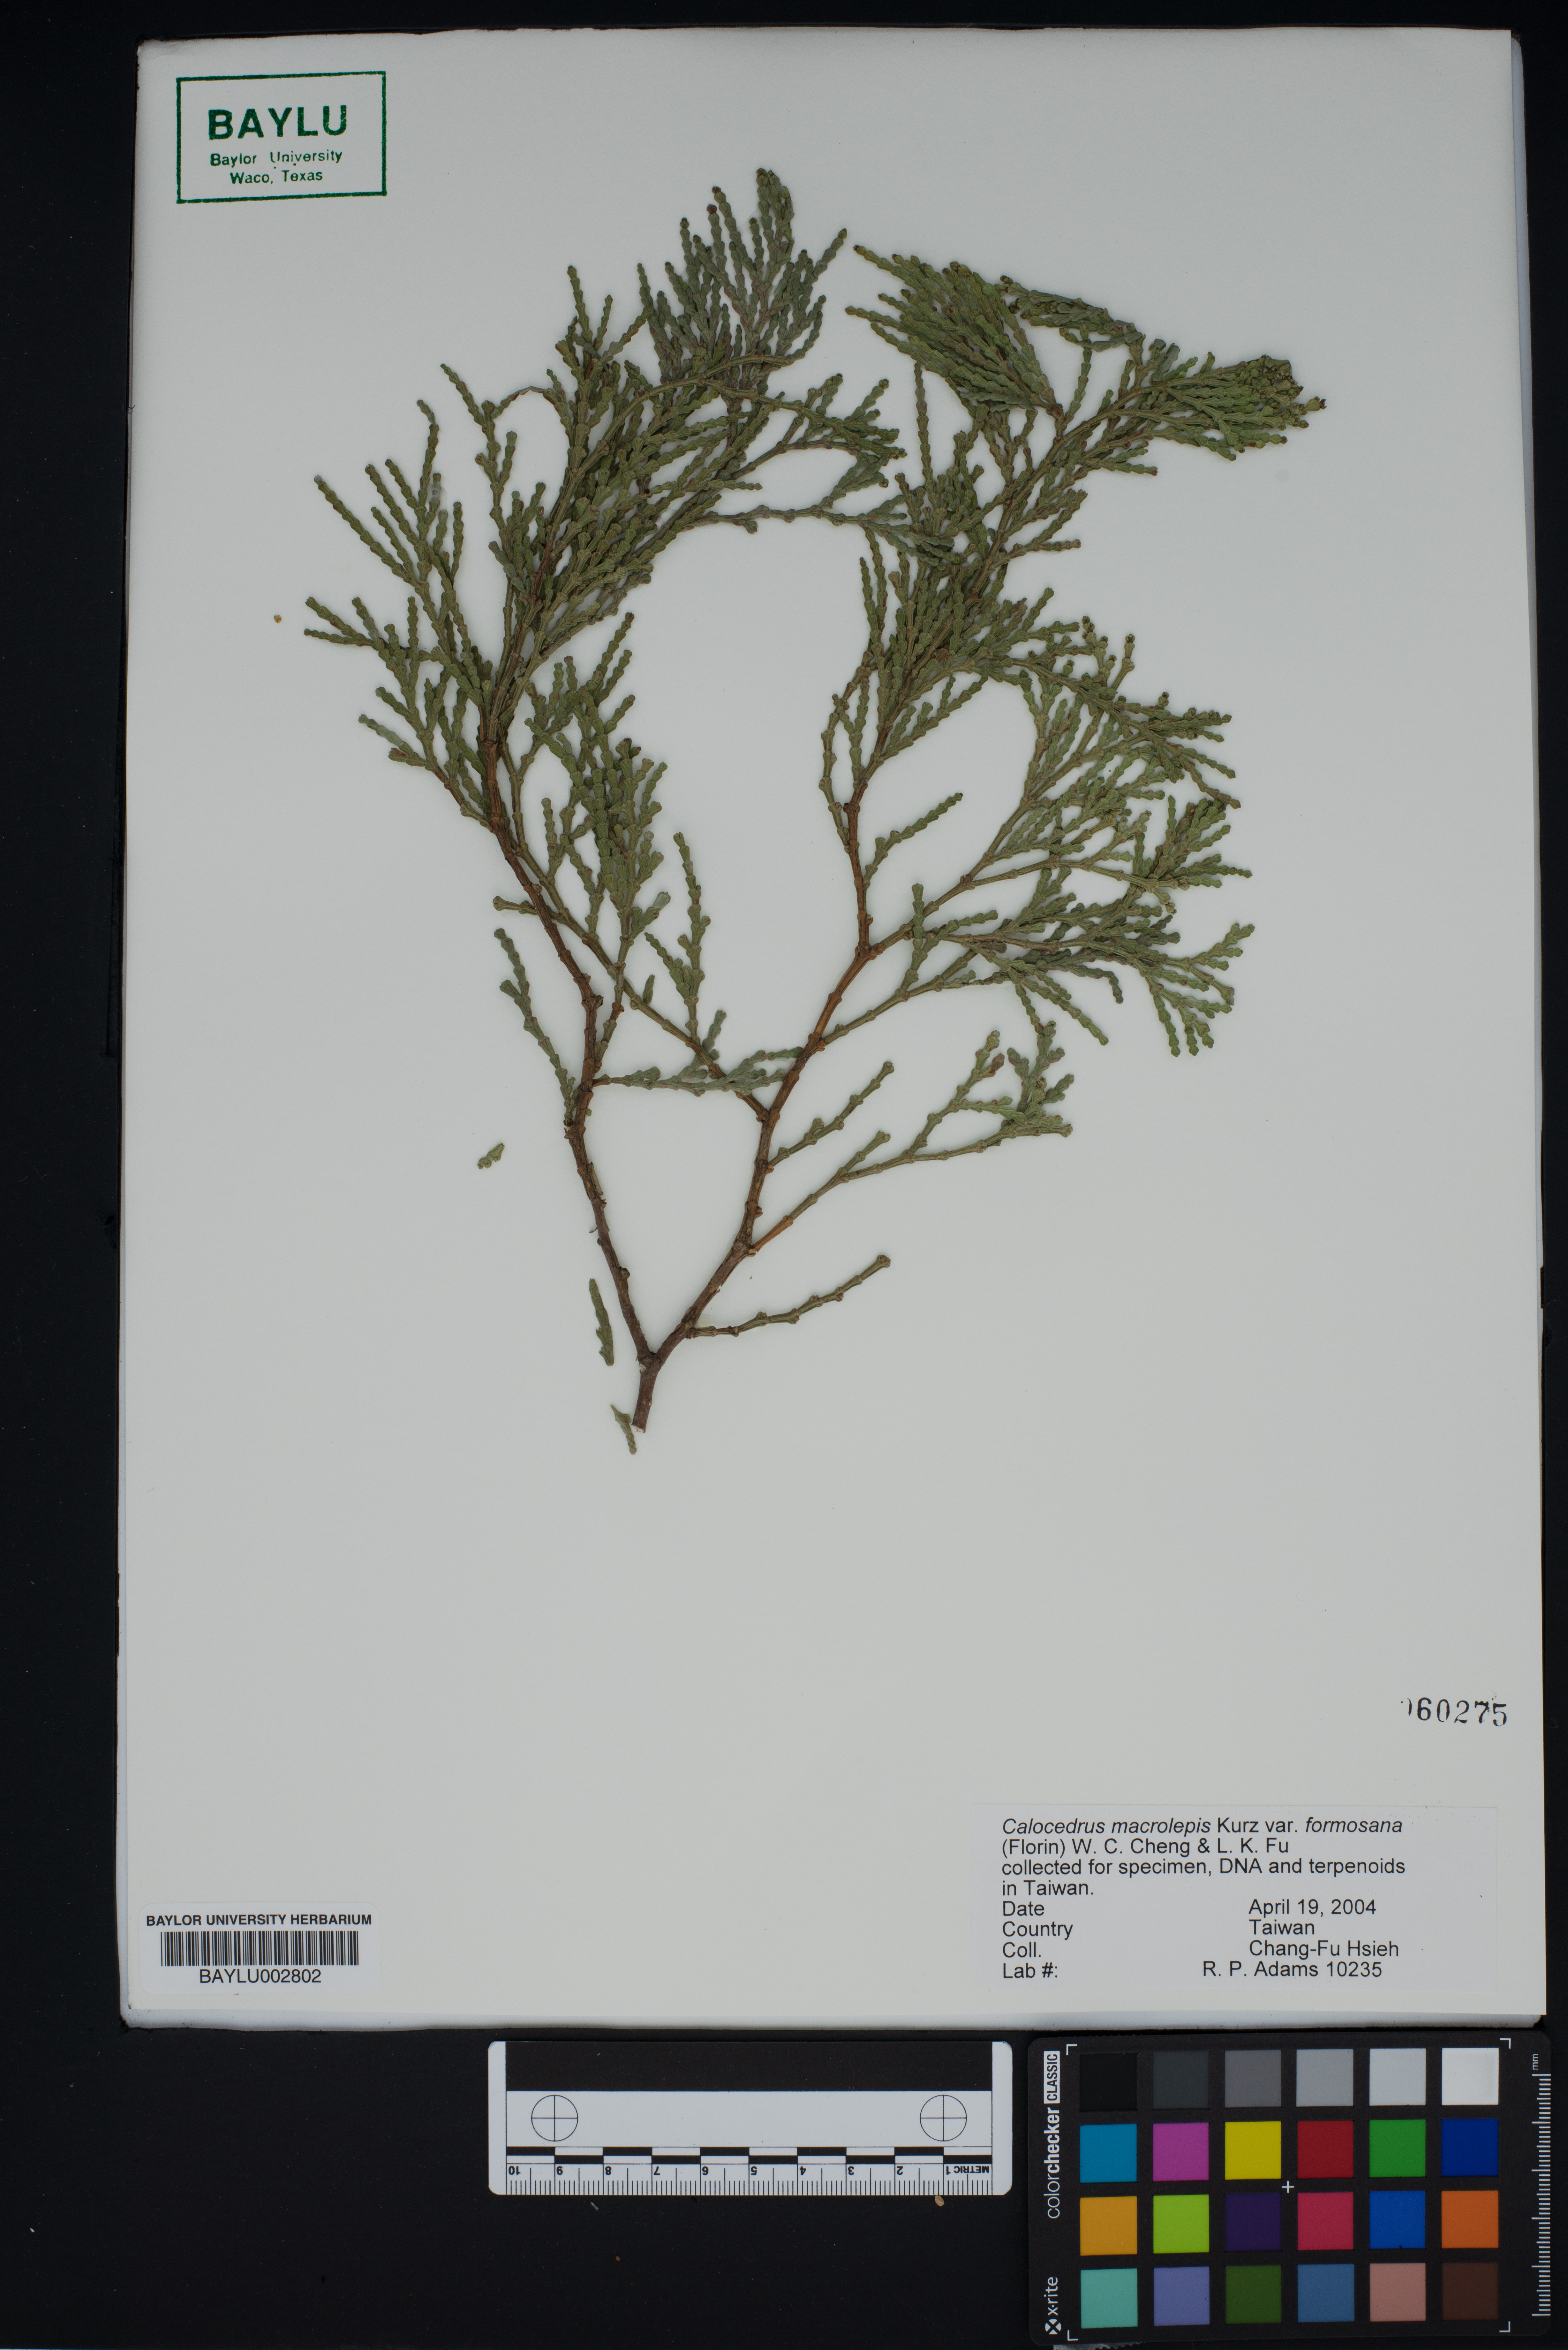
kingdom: Plantae
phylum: Tracheophyta
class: Pinopsida
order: Pinales
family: Cupressaceae
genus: Calocedrus
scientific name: Calocedrus formosana
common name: Taiwan incense-cedar
